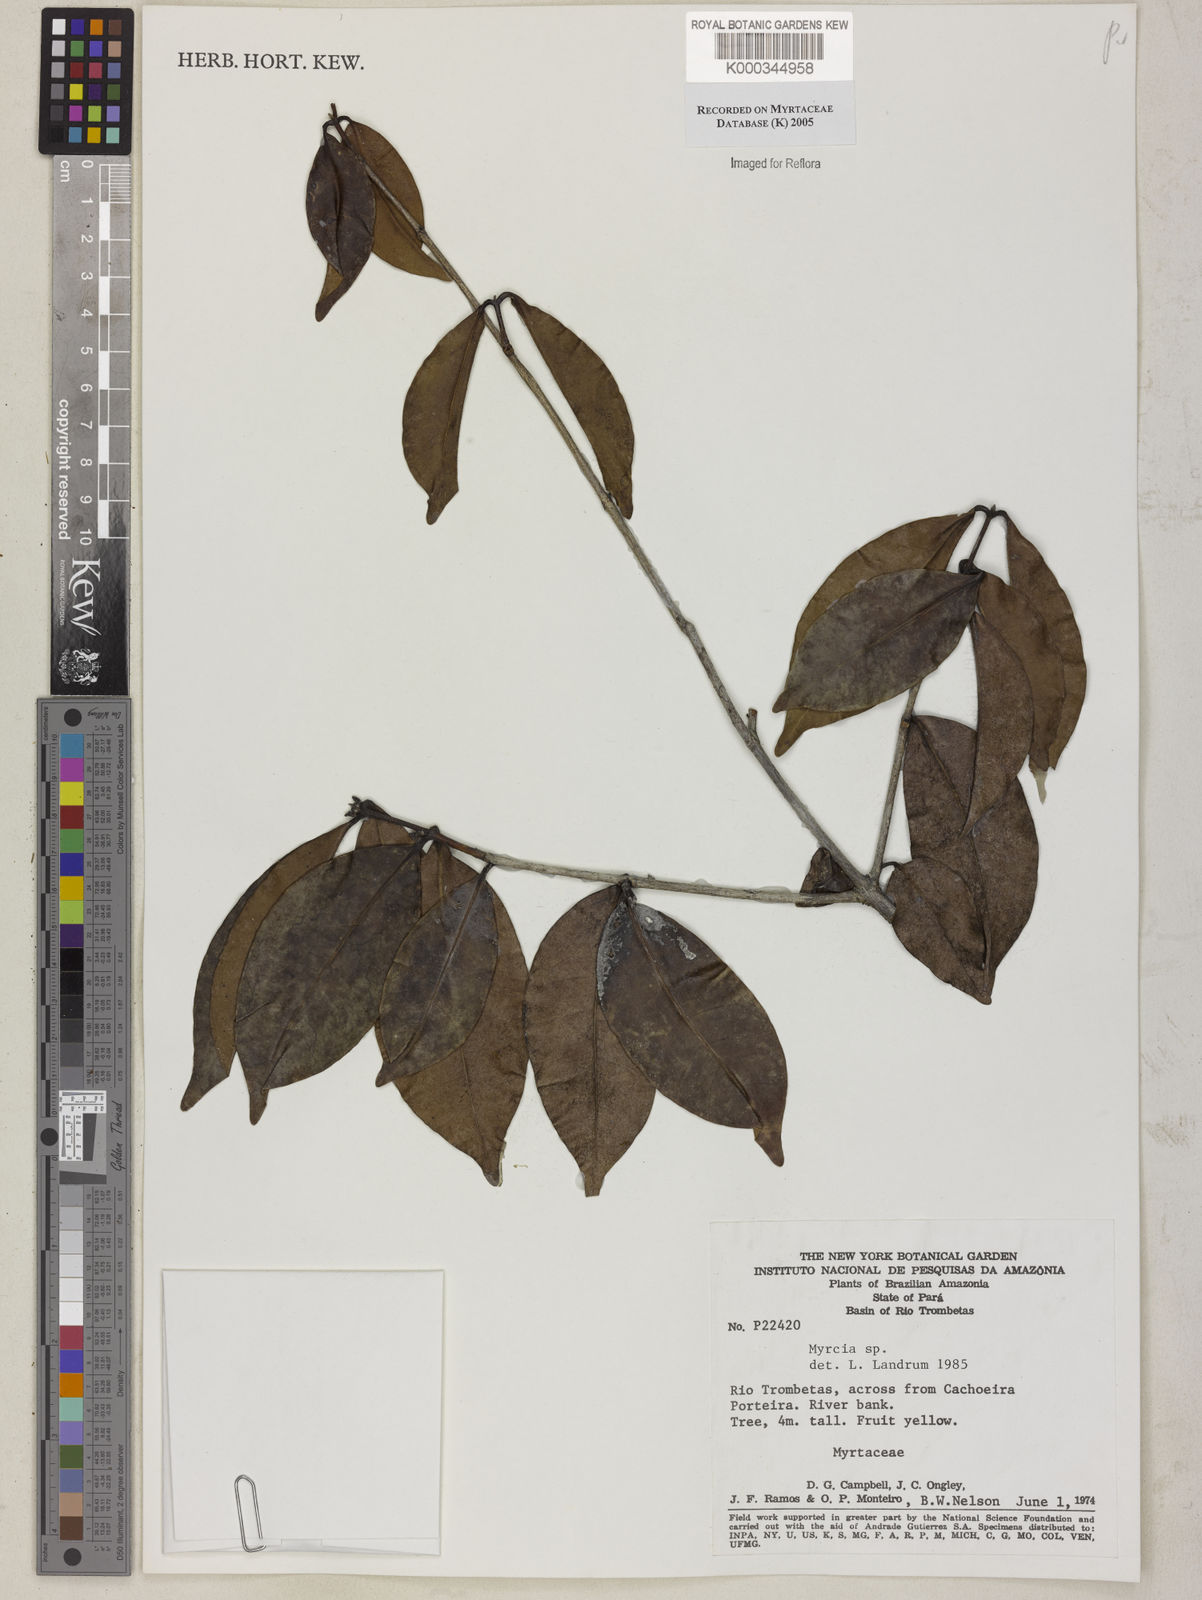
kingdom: Plantae
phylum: Tracheophyta
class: Magnoliopsida
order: Myrtales
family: Myrtaceae
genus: Myrcia
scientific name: Myrcia
